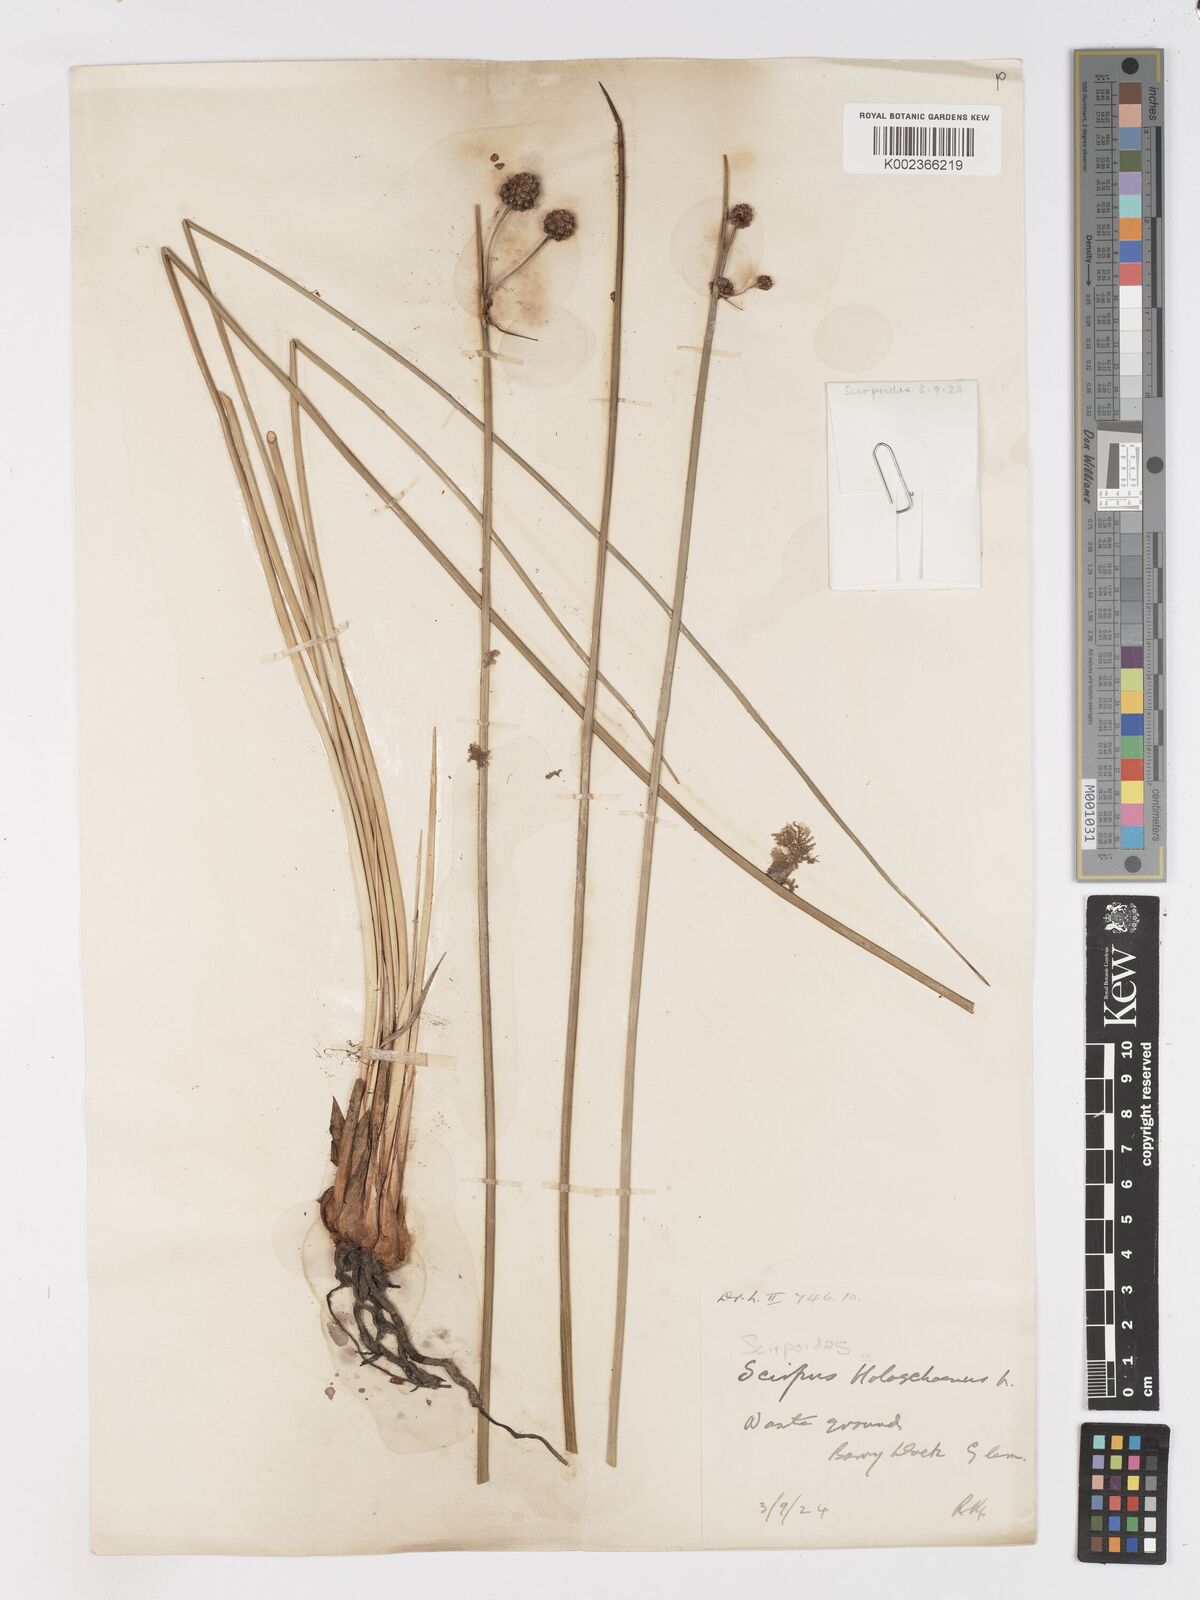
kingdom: Plantae
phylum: Tracheophyta
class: Liliopsida
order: Poales
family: Cyperaceae
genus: Scirpoides
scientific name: Scirpoides holoschoenus
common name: Round-headed club-rush
